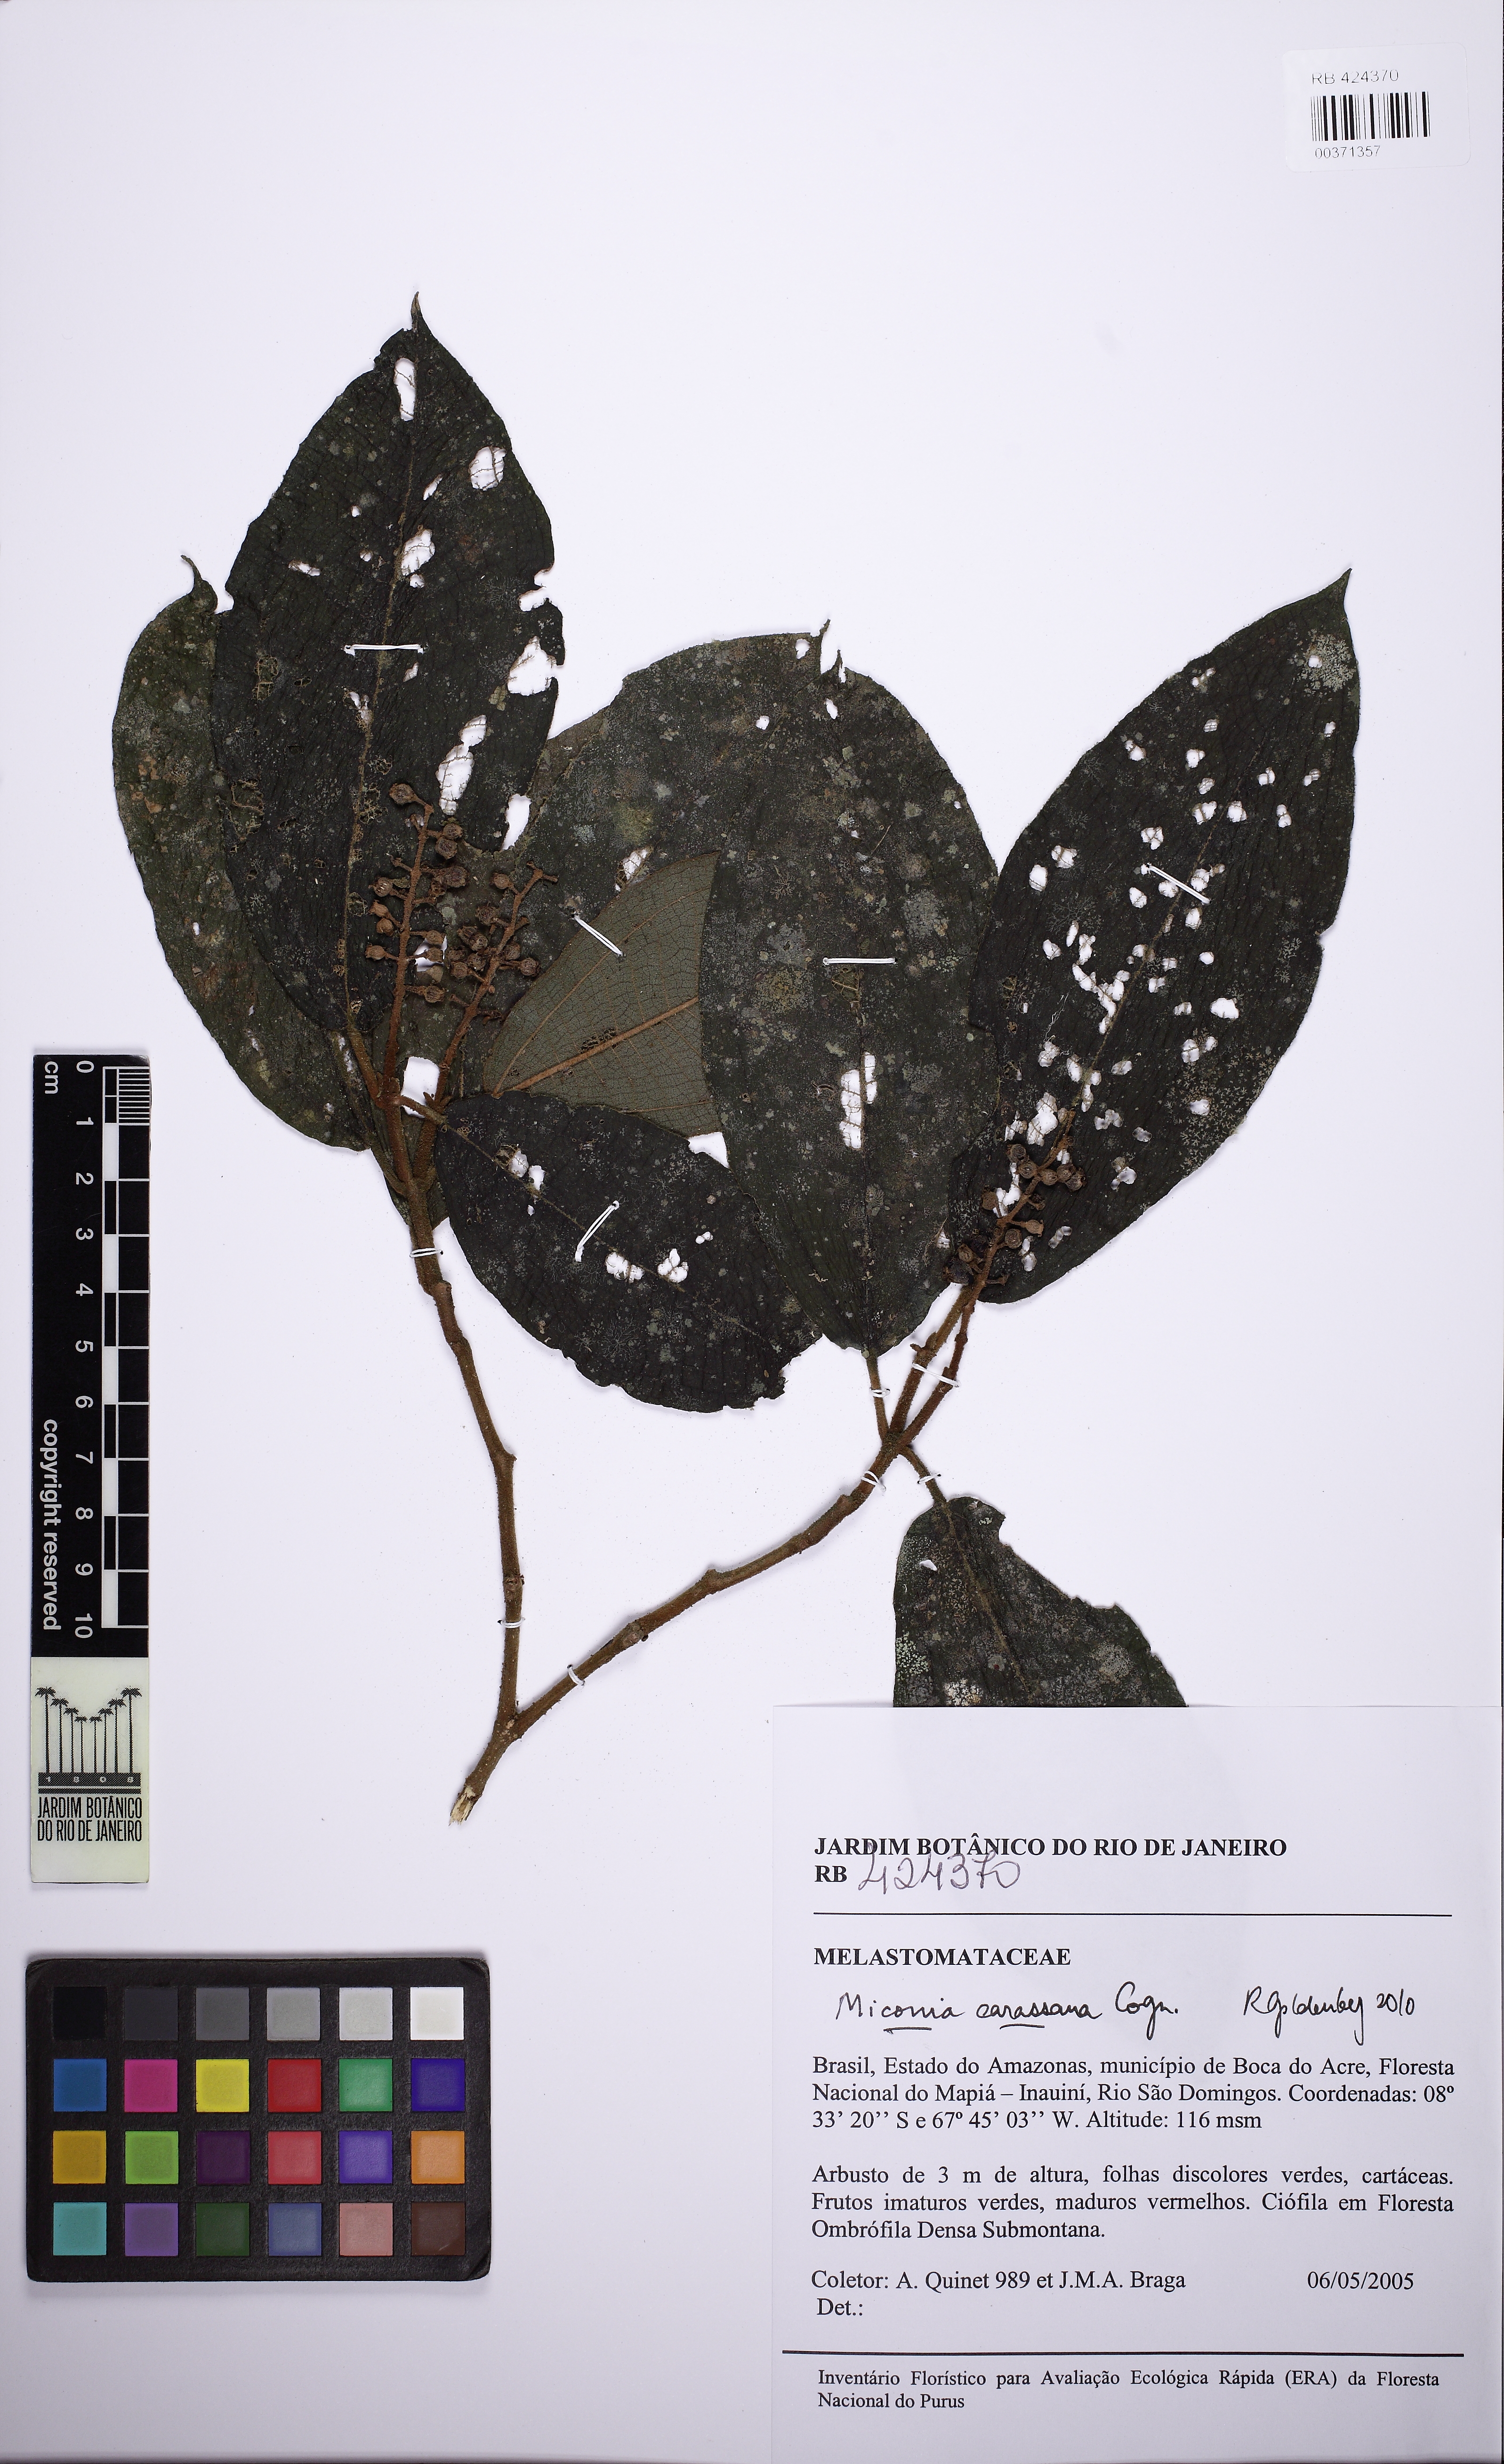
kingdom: Plantae
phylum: Tracheophyta
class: Magnoliopsida
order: Myrtales
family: Melastomataceae
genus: Miconia
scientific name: Miconia carassana
